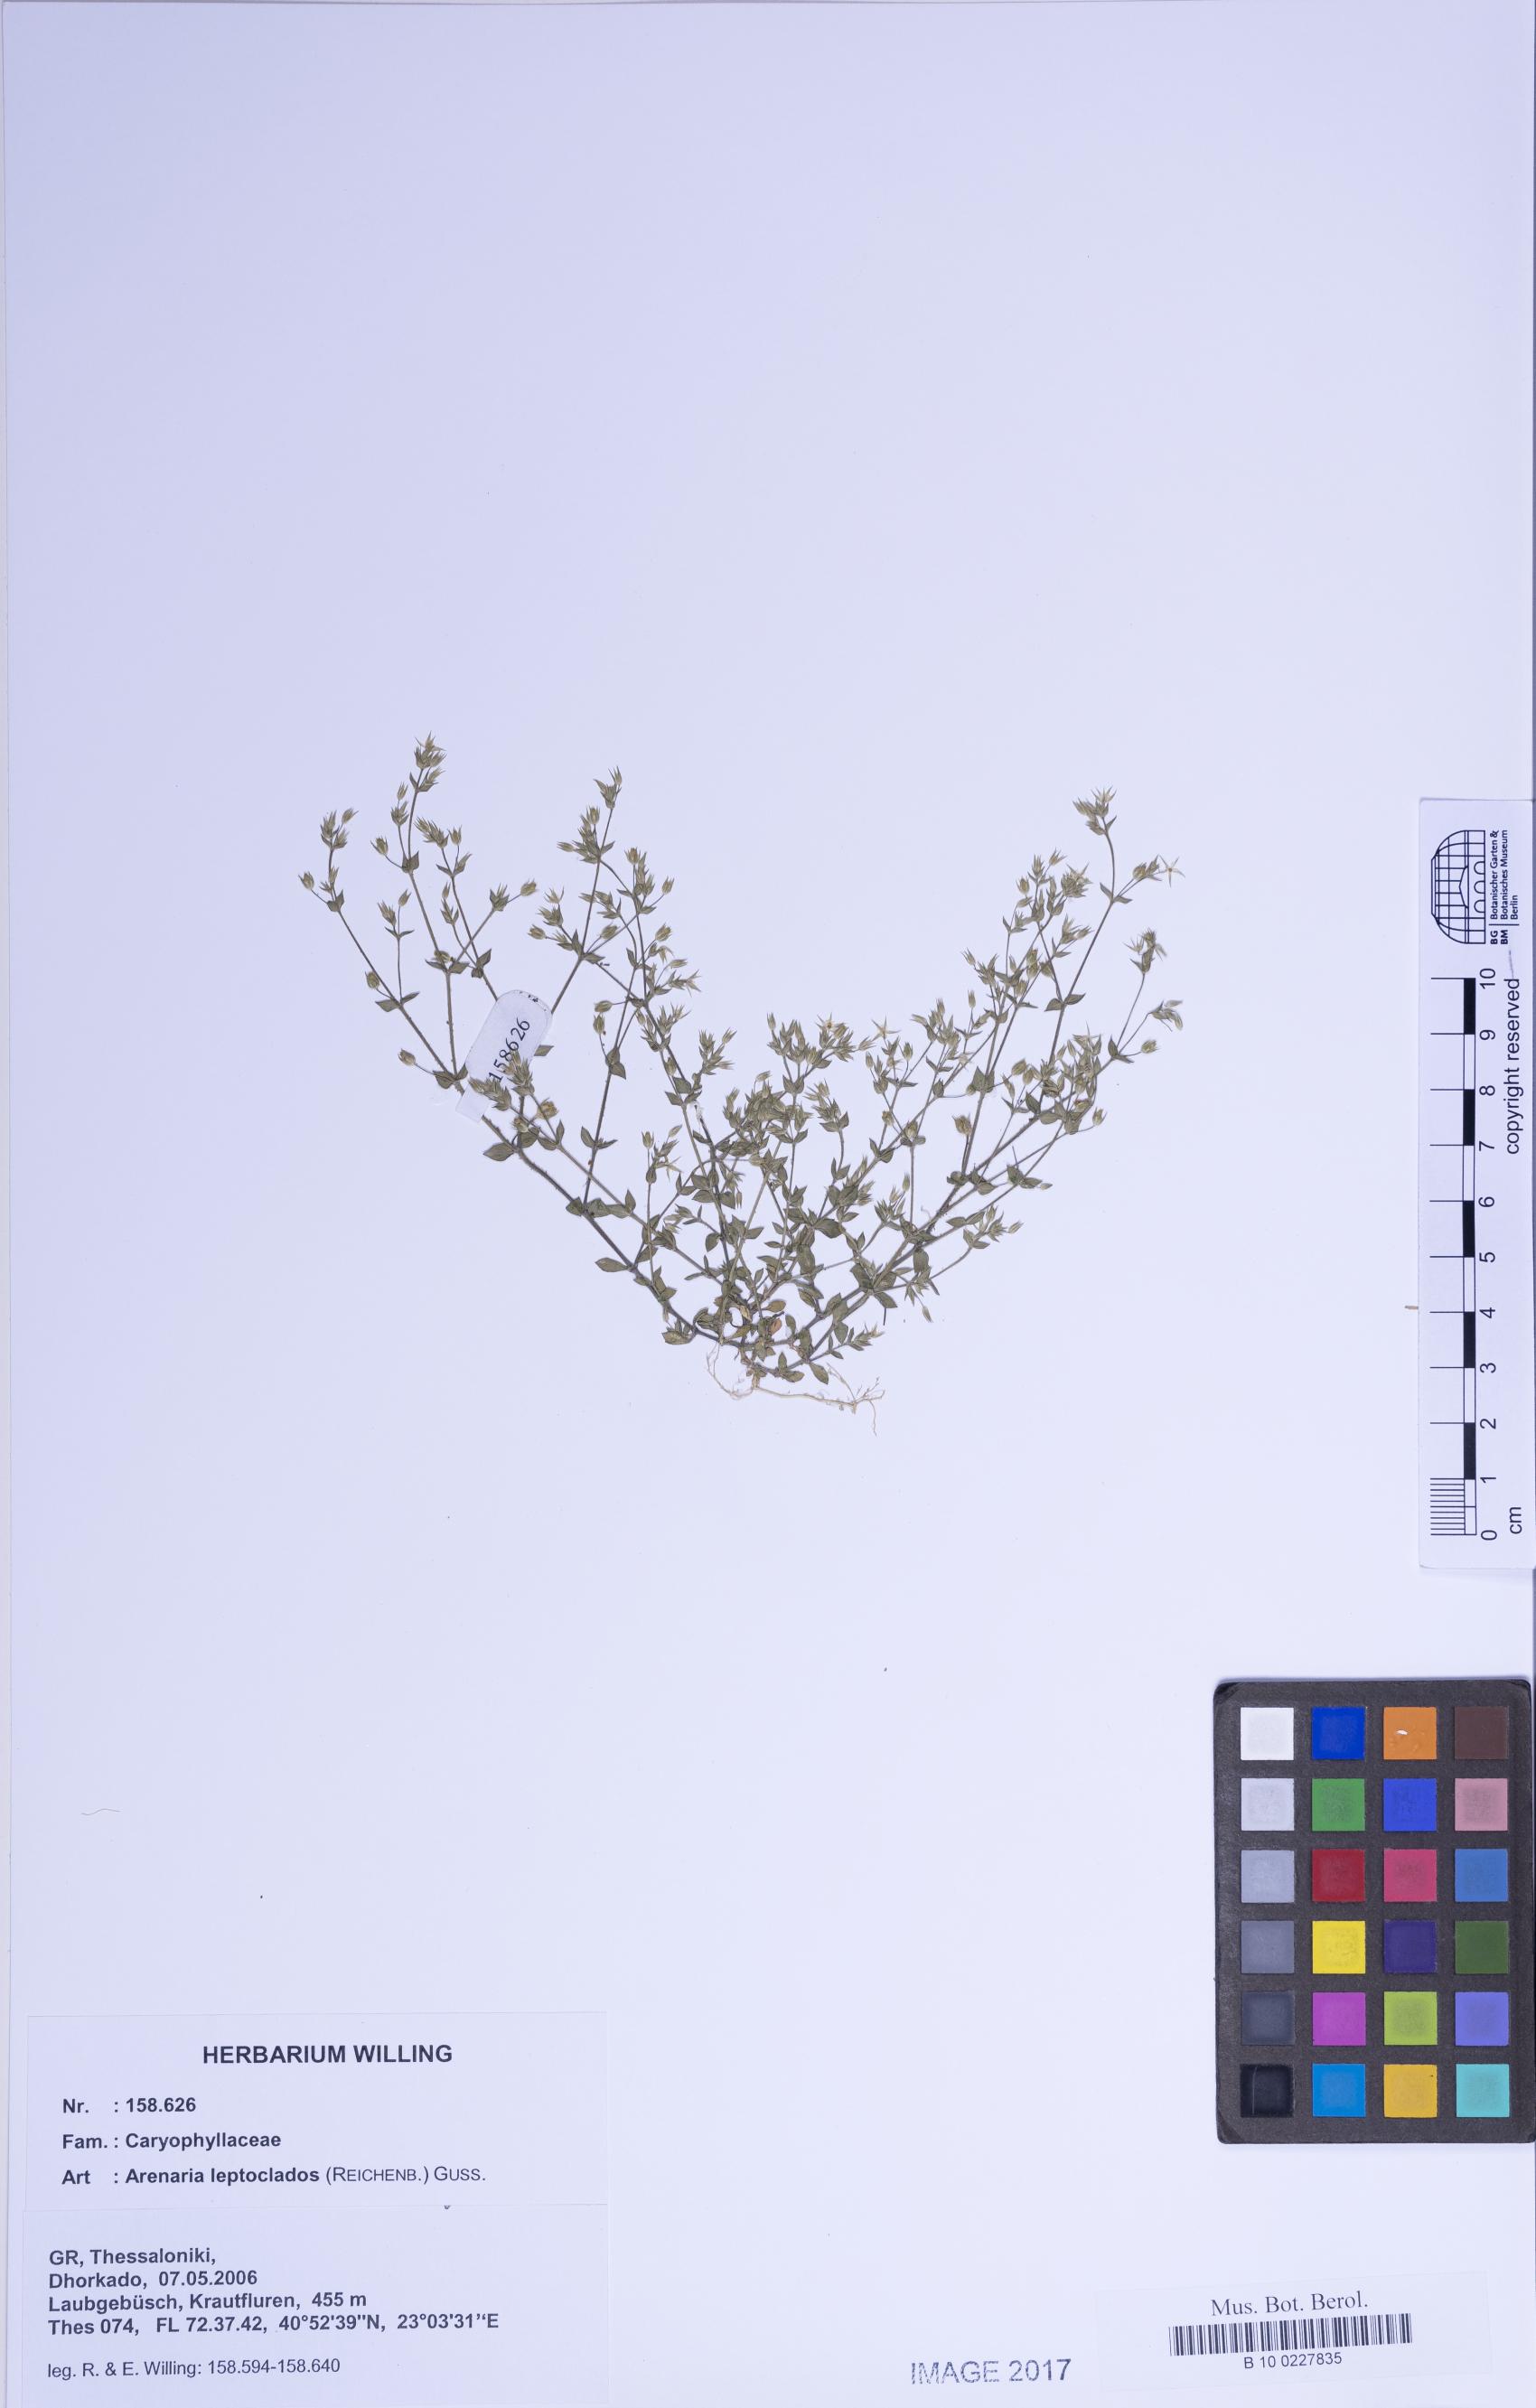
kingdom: Plantae
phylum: Tracheophyta
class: Magnoliopsida
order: Caryophyllales
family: Caryophyllaceae
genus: Arenaria
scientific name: Arenaria leptoclados
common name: Thyme-leaved sandwort
